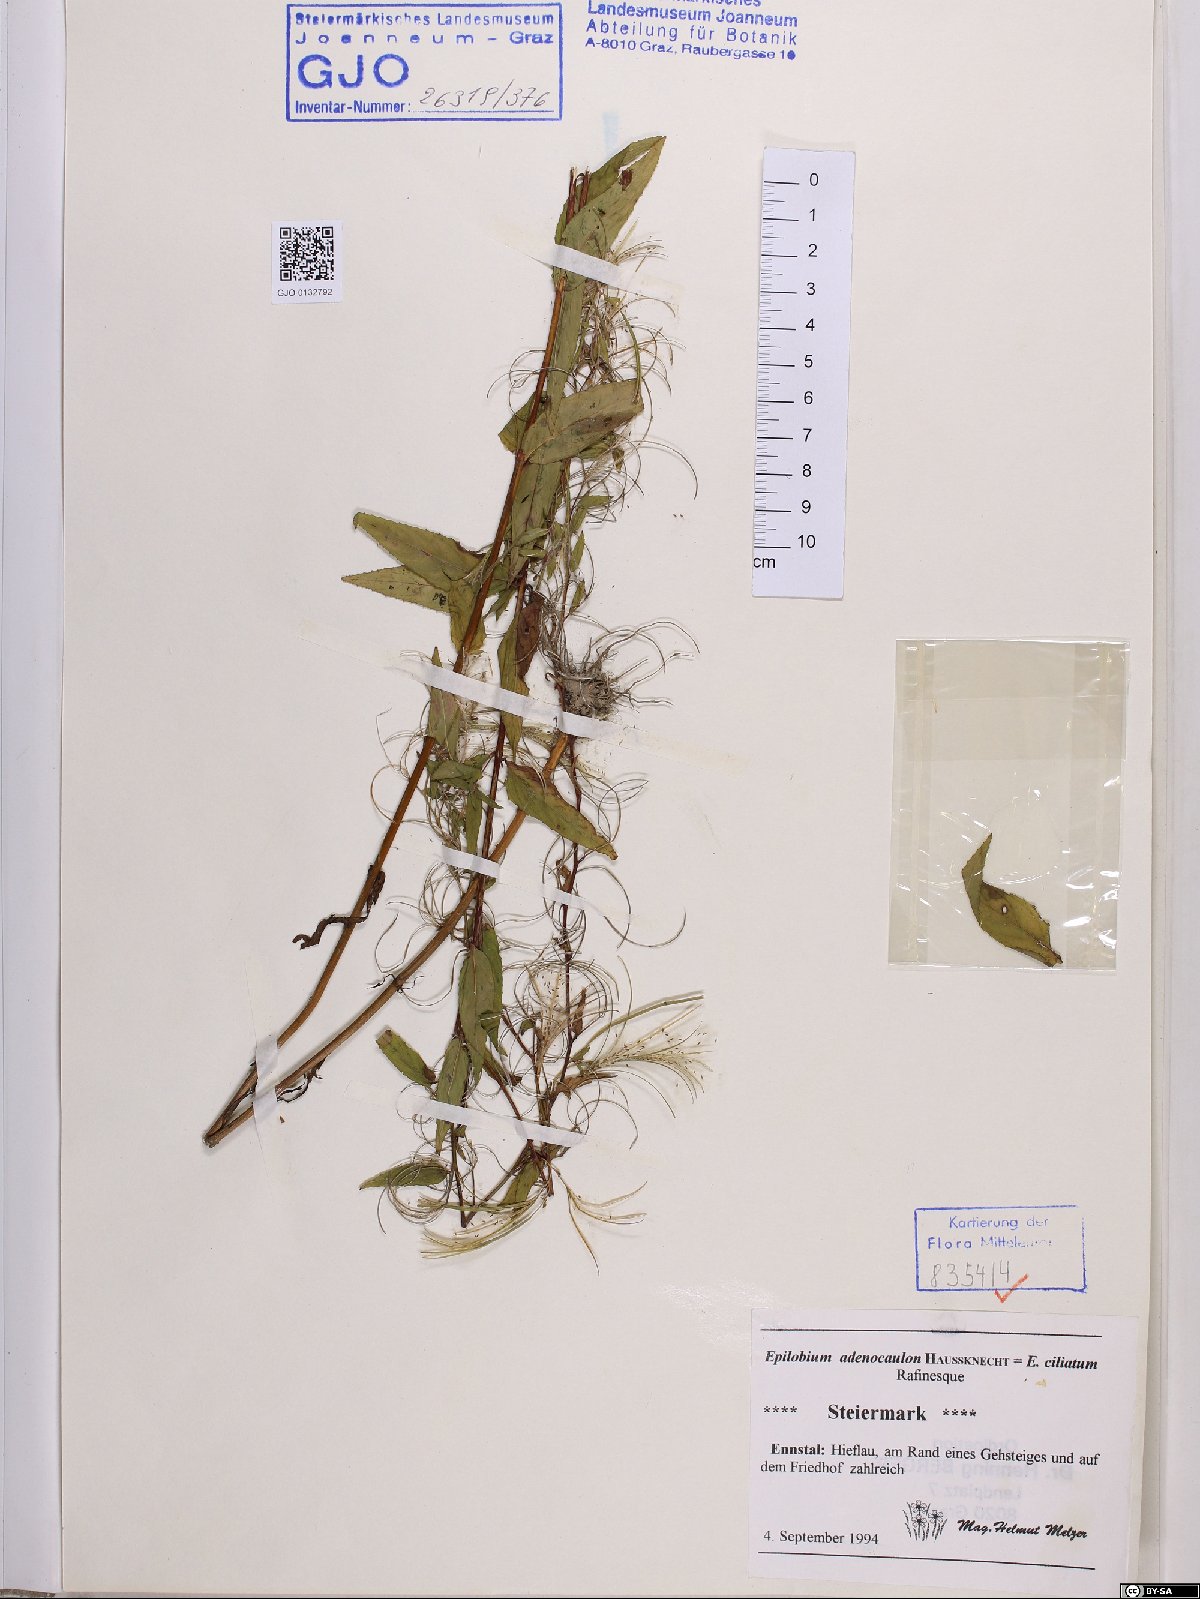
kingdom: Plantae
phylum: Tracheophyta
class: Magnoliopsida
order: Myrtales
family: Onagraceae
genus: Epilobium
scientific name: Epilobium ciliatum
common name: American willowherb
